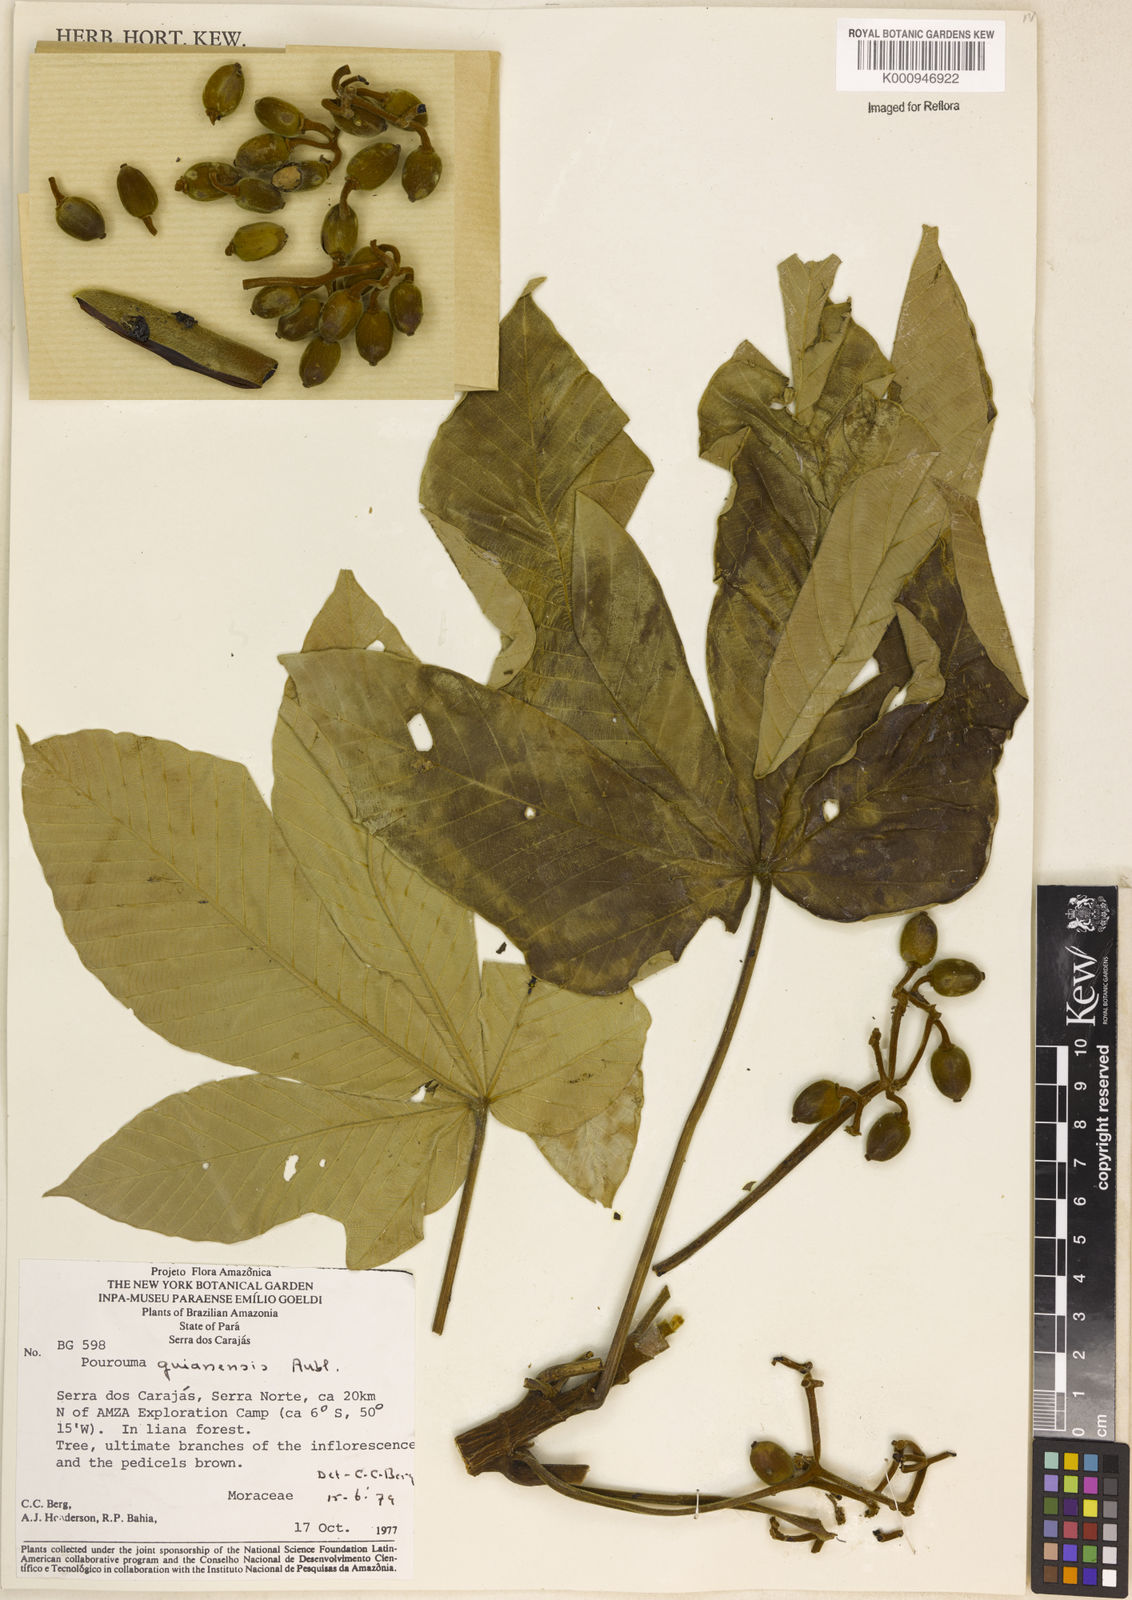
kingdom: Plantae
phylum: Tracheophyta
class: Magnoliopsida
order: Rosales
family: Urticaceae
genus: Pourouma
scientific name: Pourouma guianensis
